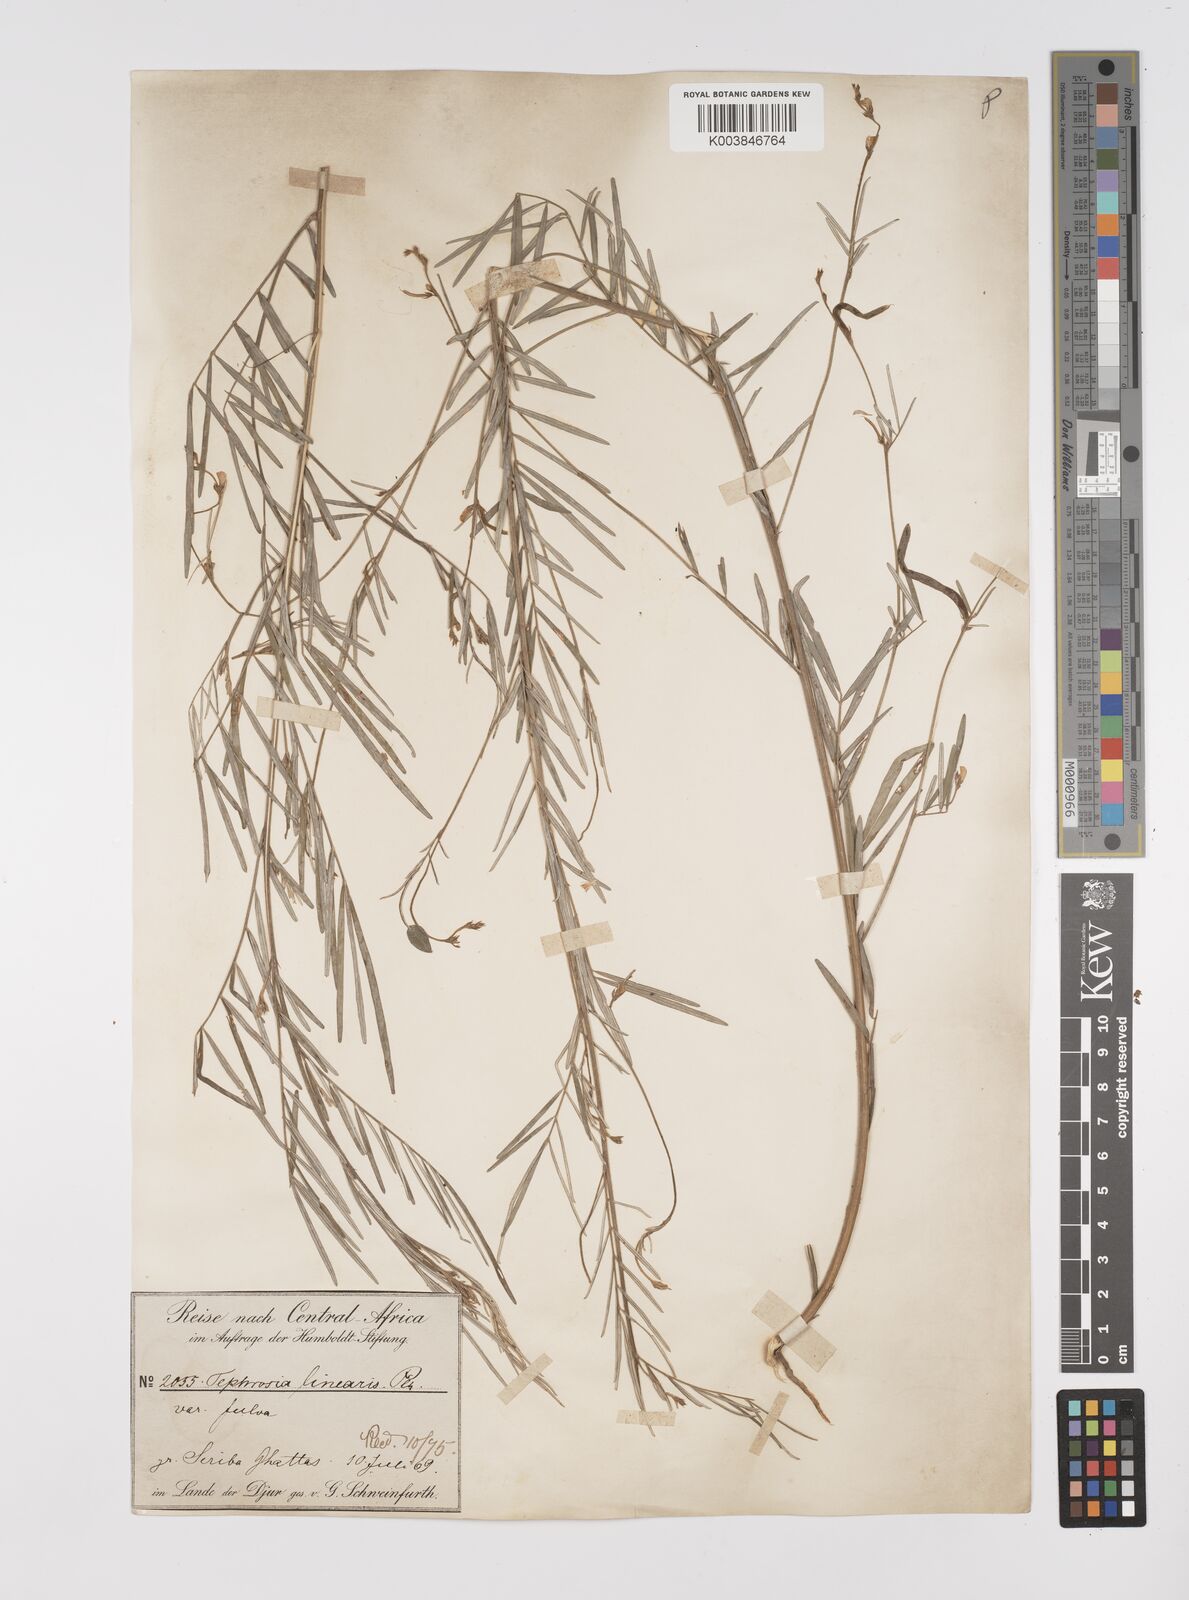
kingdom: Plantae
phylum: Tracheophyta
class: Magnoliopsida
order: Fabales
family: Fabaceae
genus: Tephrosia
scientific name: Tephrosia linearis
